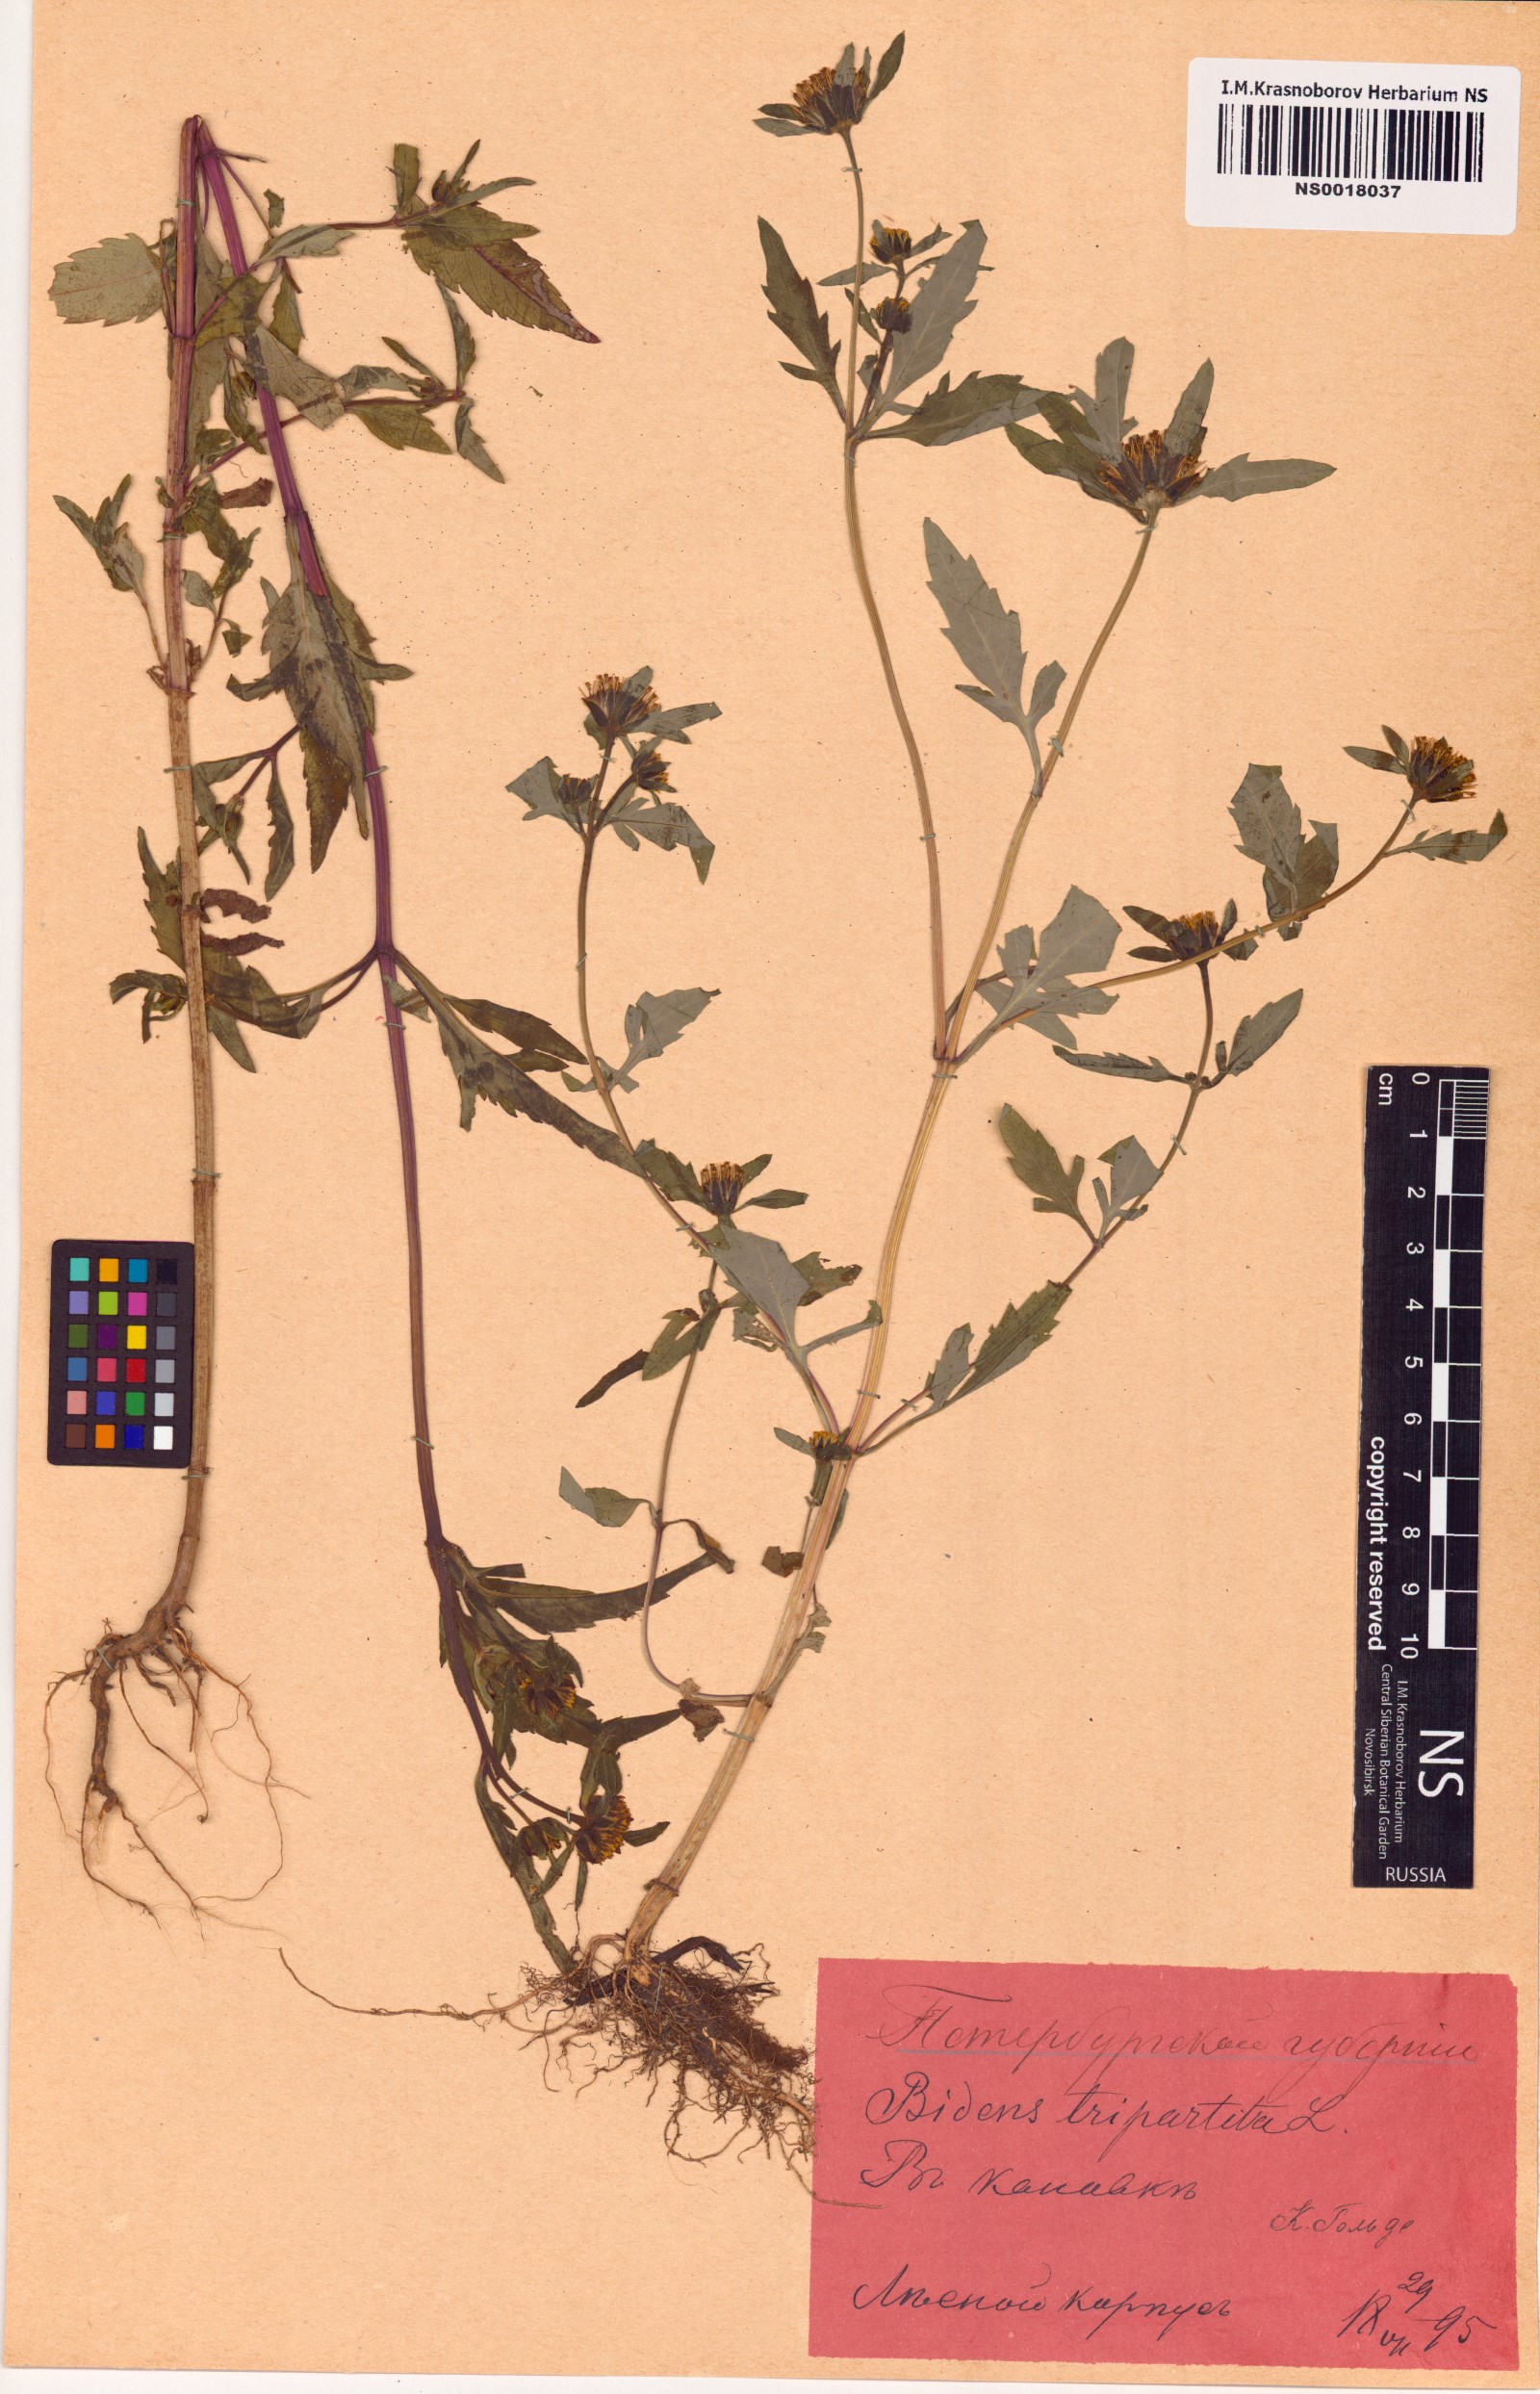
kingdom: Plantae
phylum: Tracheophyta
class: Magnoliopsida
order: Asterales
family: Asteraceae
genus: Bidens
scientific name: Bidens tripartita
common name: Trifid bur-marigold
